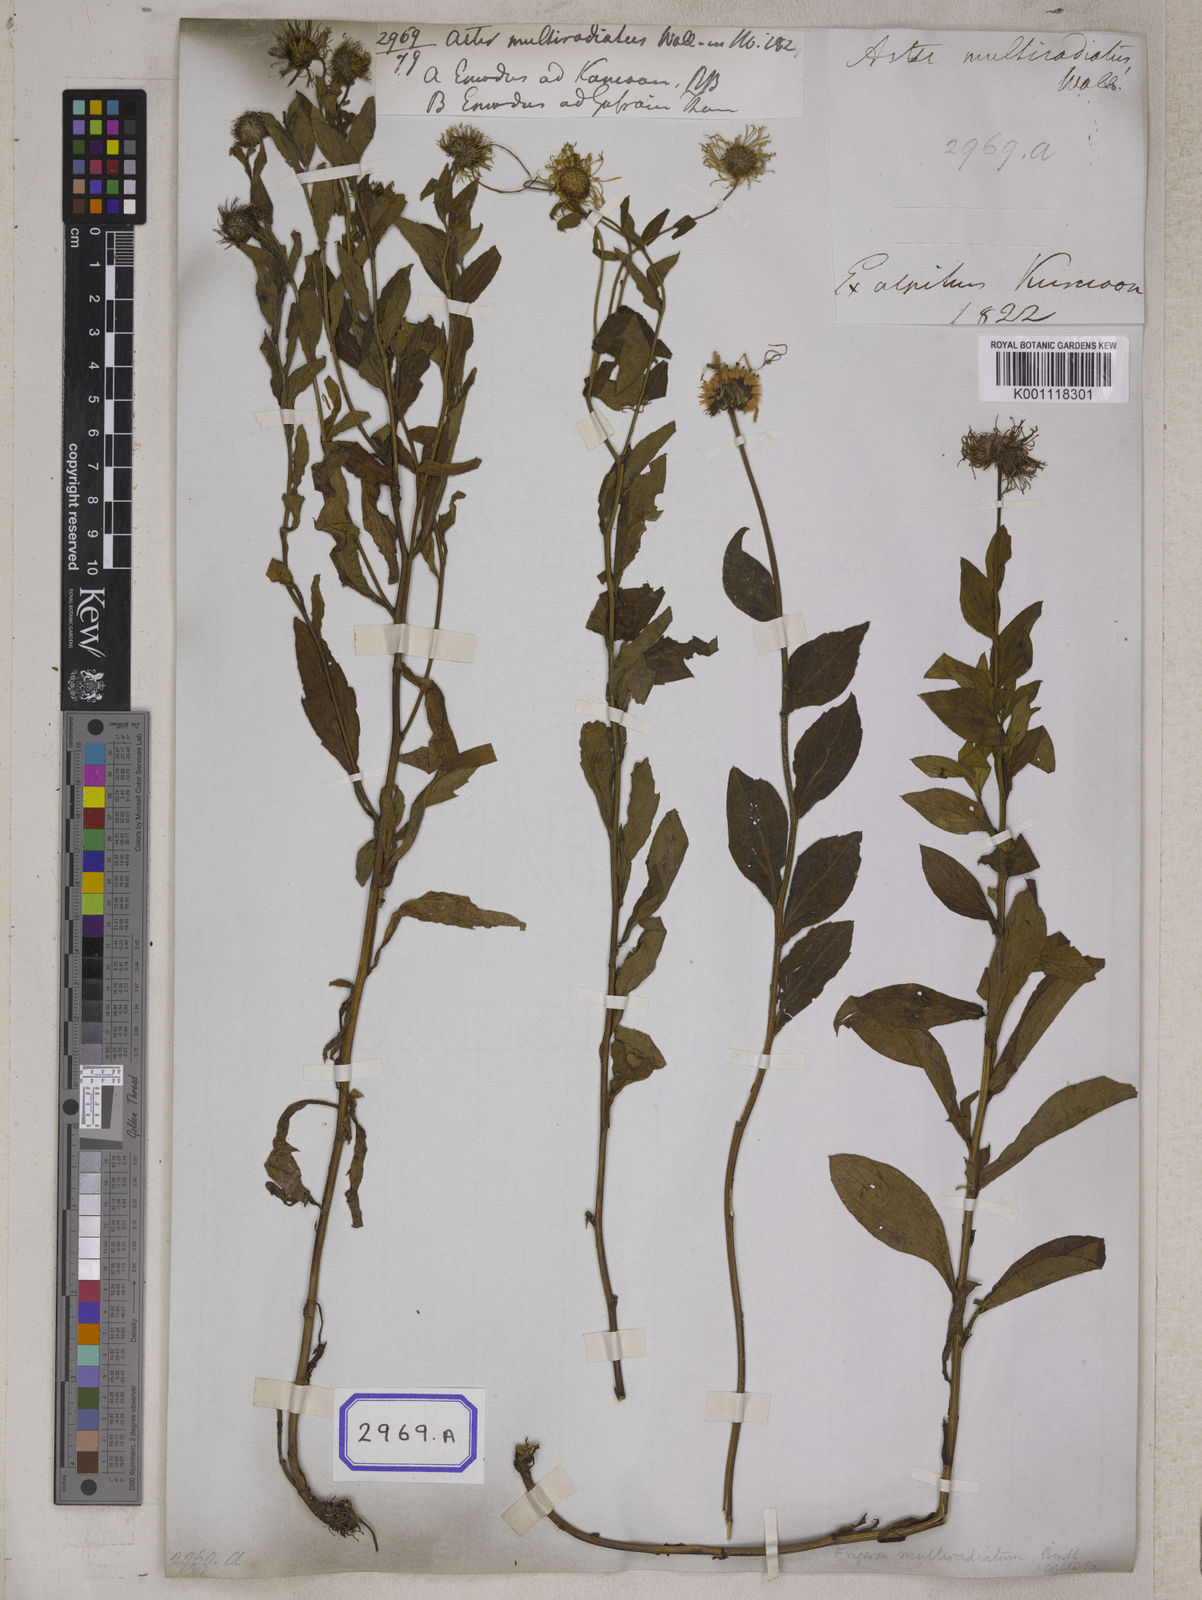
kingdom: Plantae
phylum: Tracheophyta
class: Magnoliopsida
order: Asterales
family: Asteraceae
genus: Erigeron
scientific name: Erigeron multiradiatus
